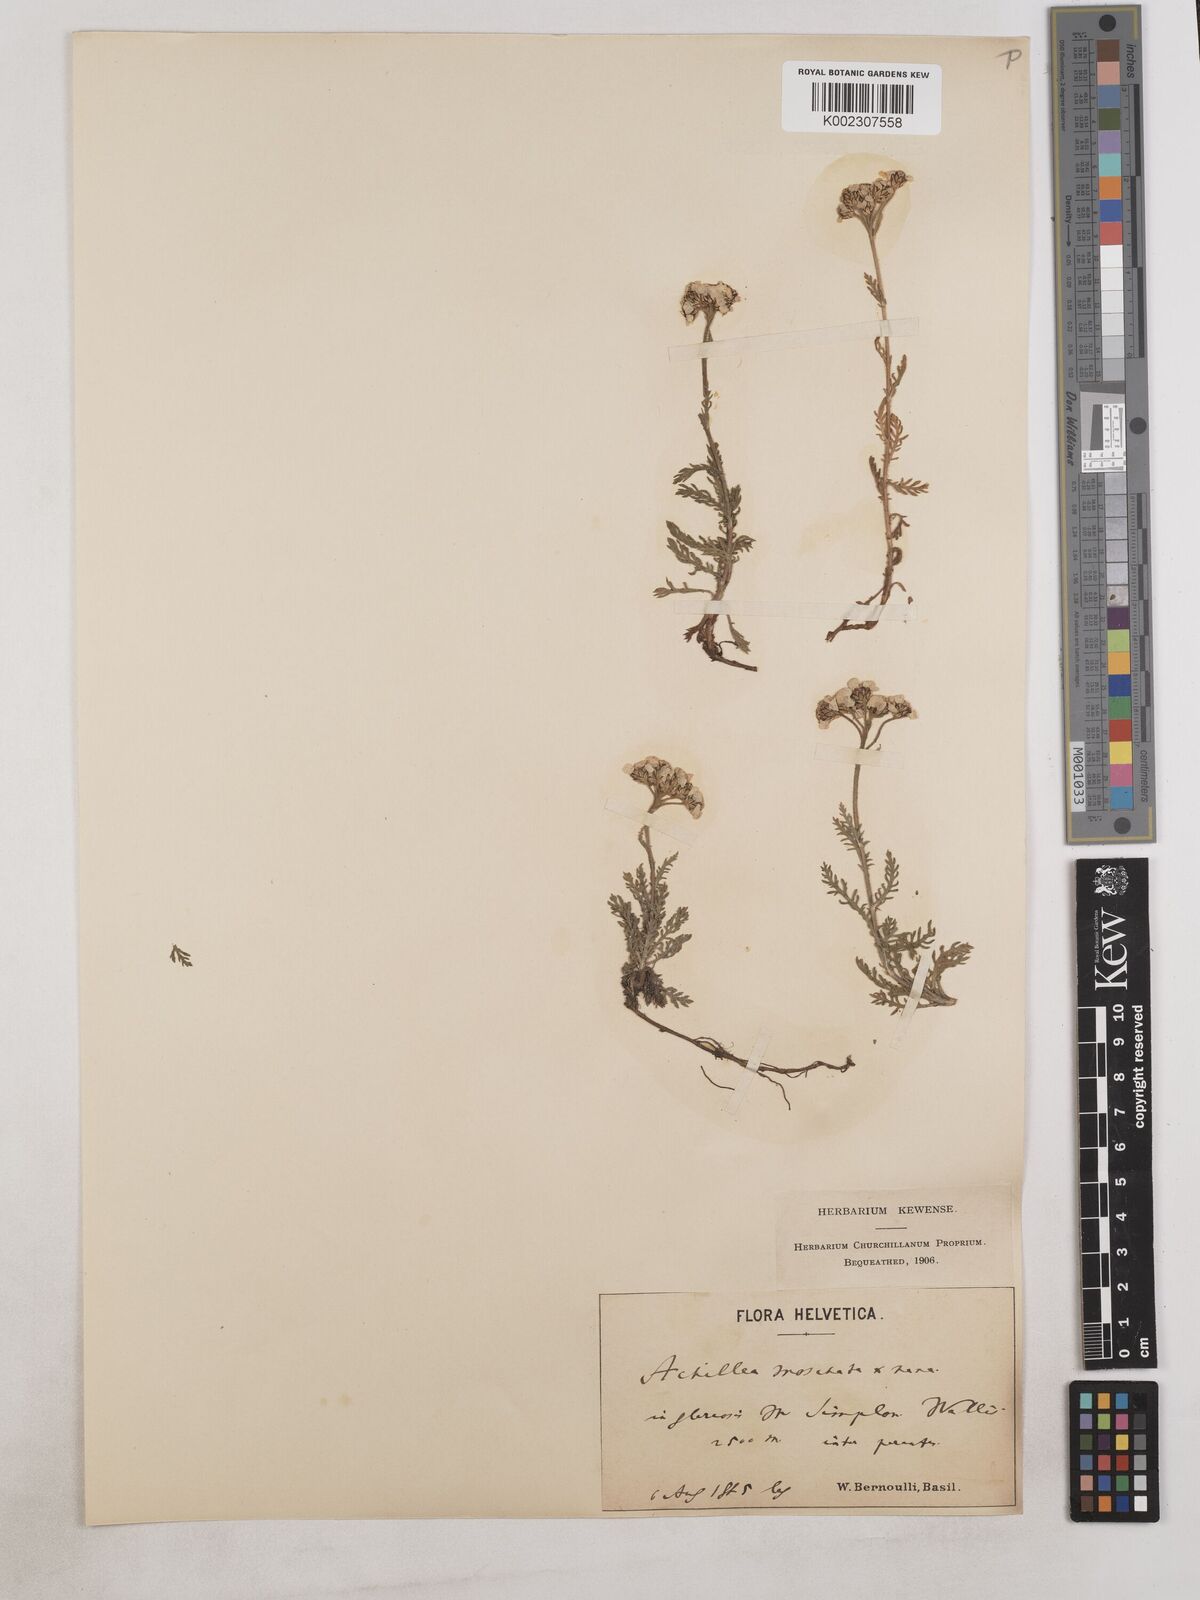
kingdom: Plantae
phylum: Tracheophyta
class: Magnoliopsida
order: Asterales
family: Asteraceae
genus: Achillea
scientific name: Achillea erba-rotta
